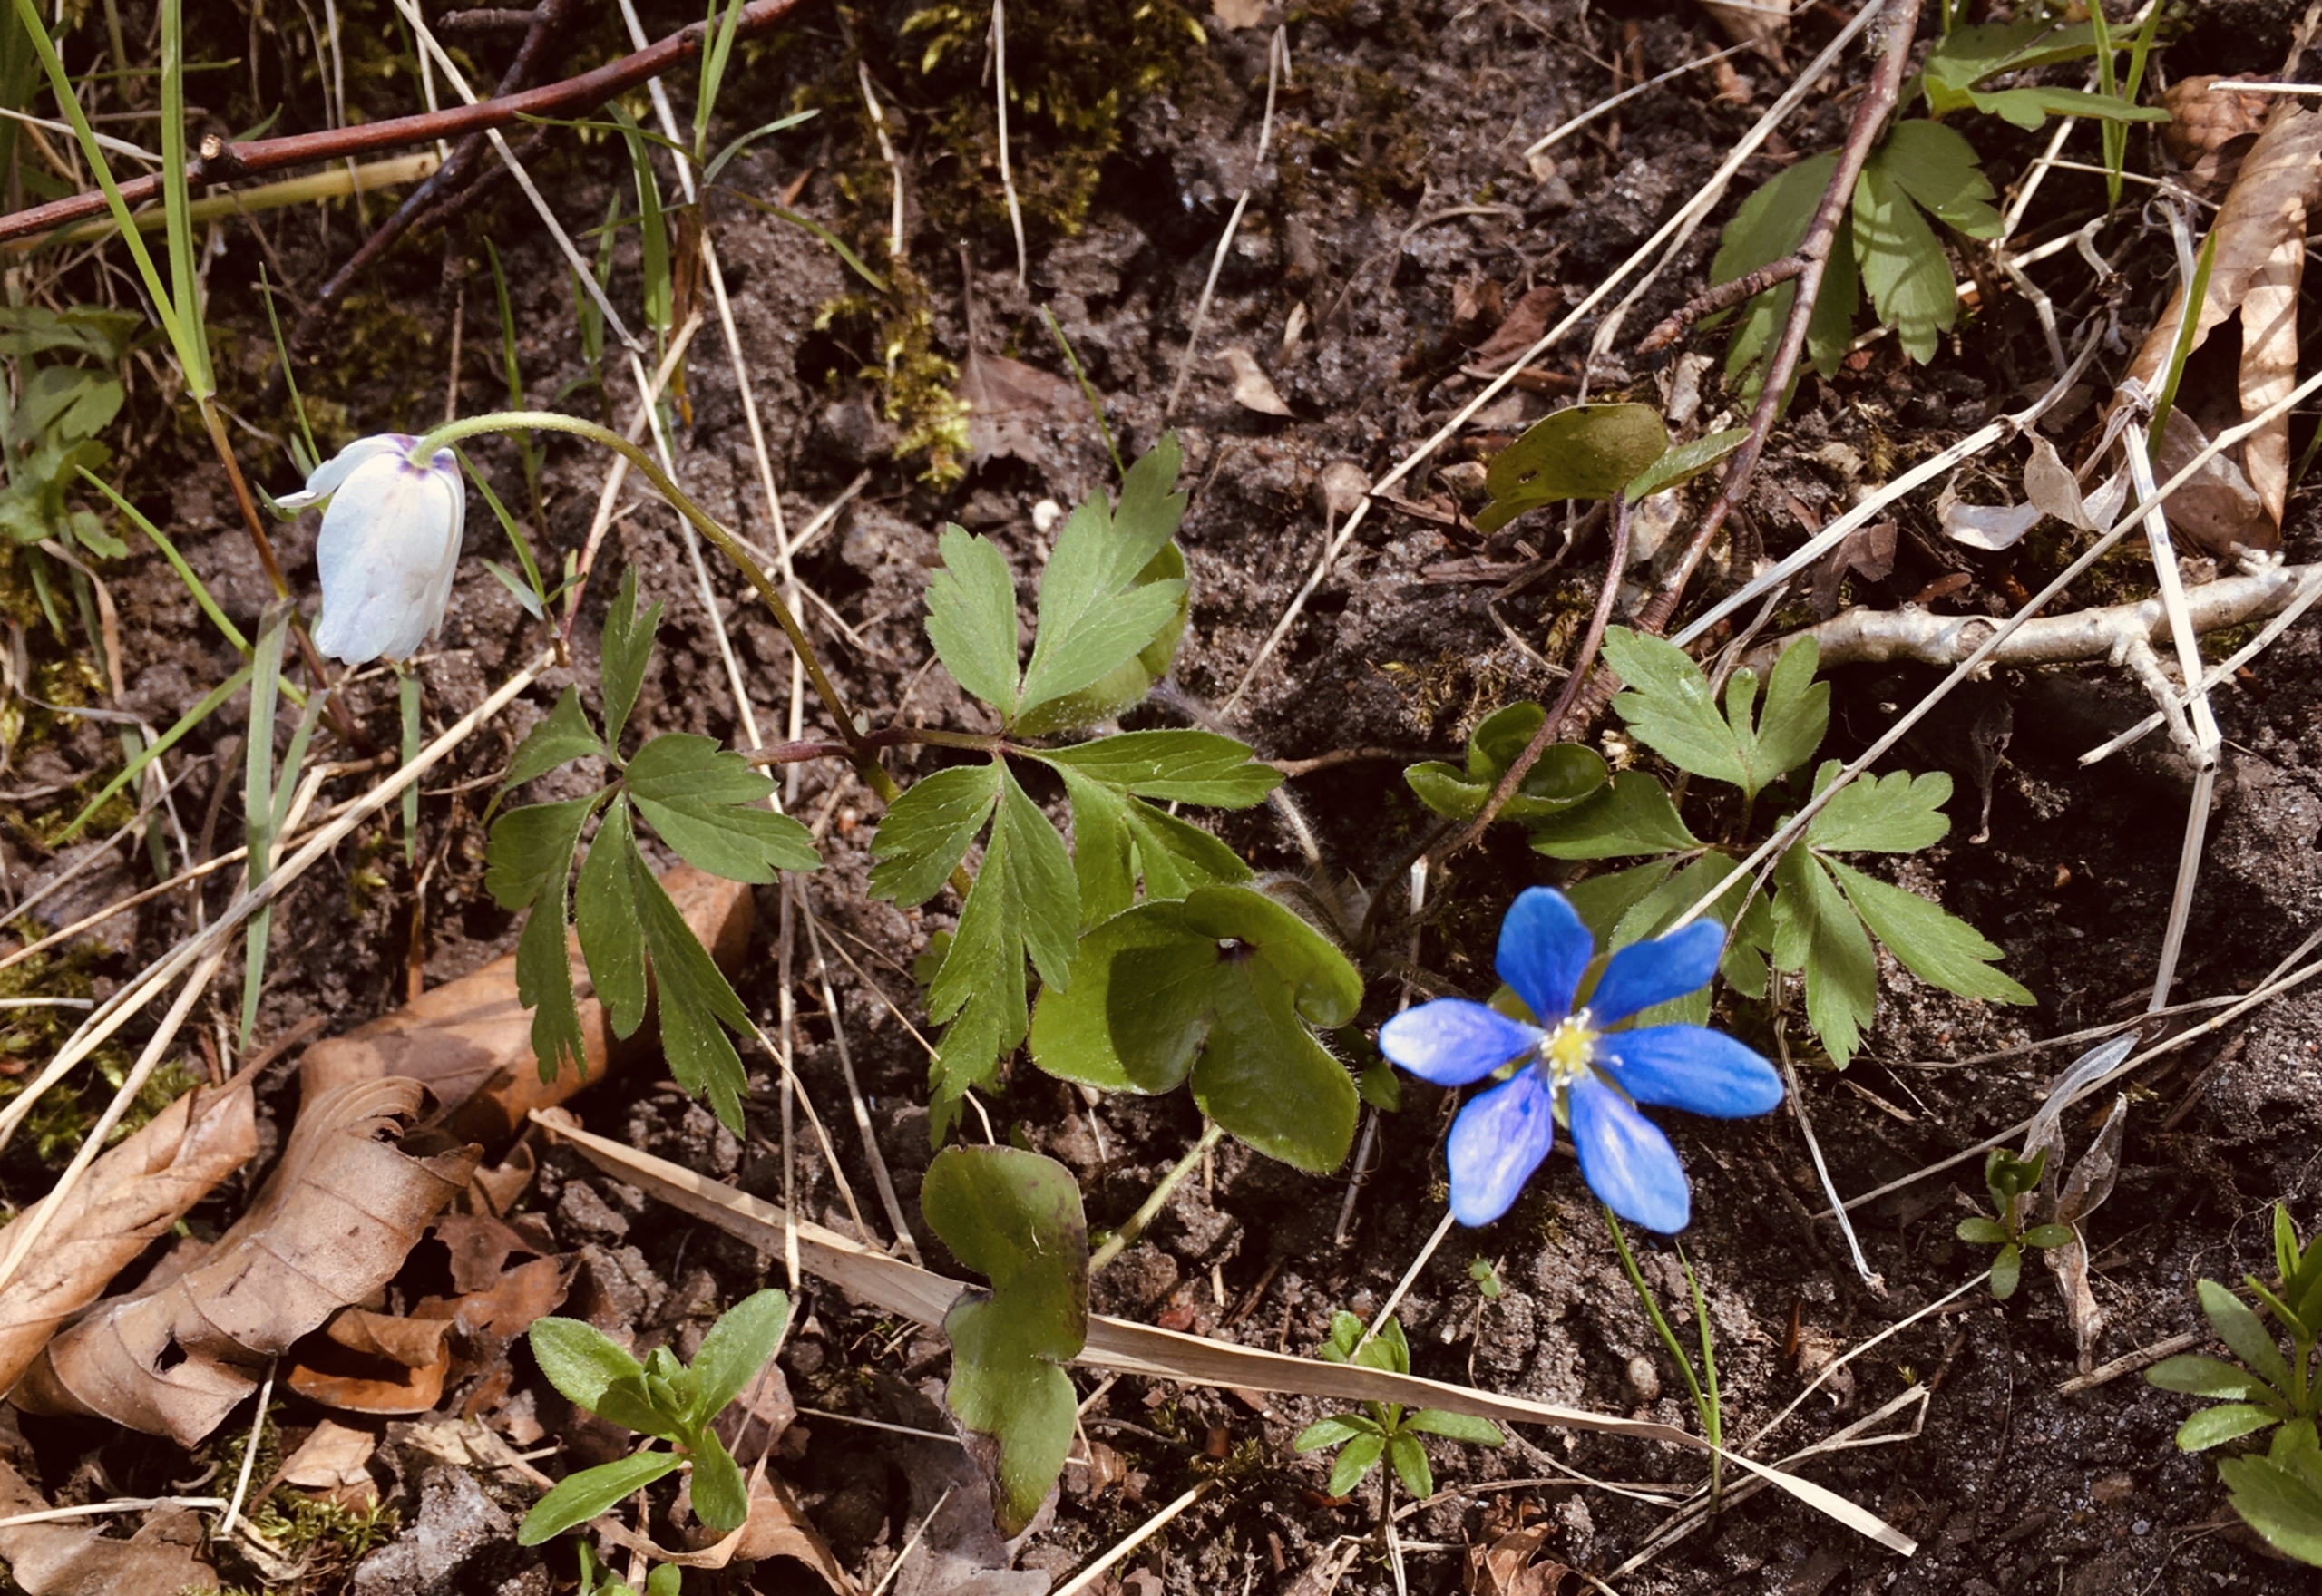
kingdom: Plantae
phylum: Tracheophyta
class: Magnoliopsida
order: Ranunculales
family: Ranunculaceae
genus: Hepatica
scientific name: Hepatica nobilis
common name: Blå anemone
